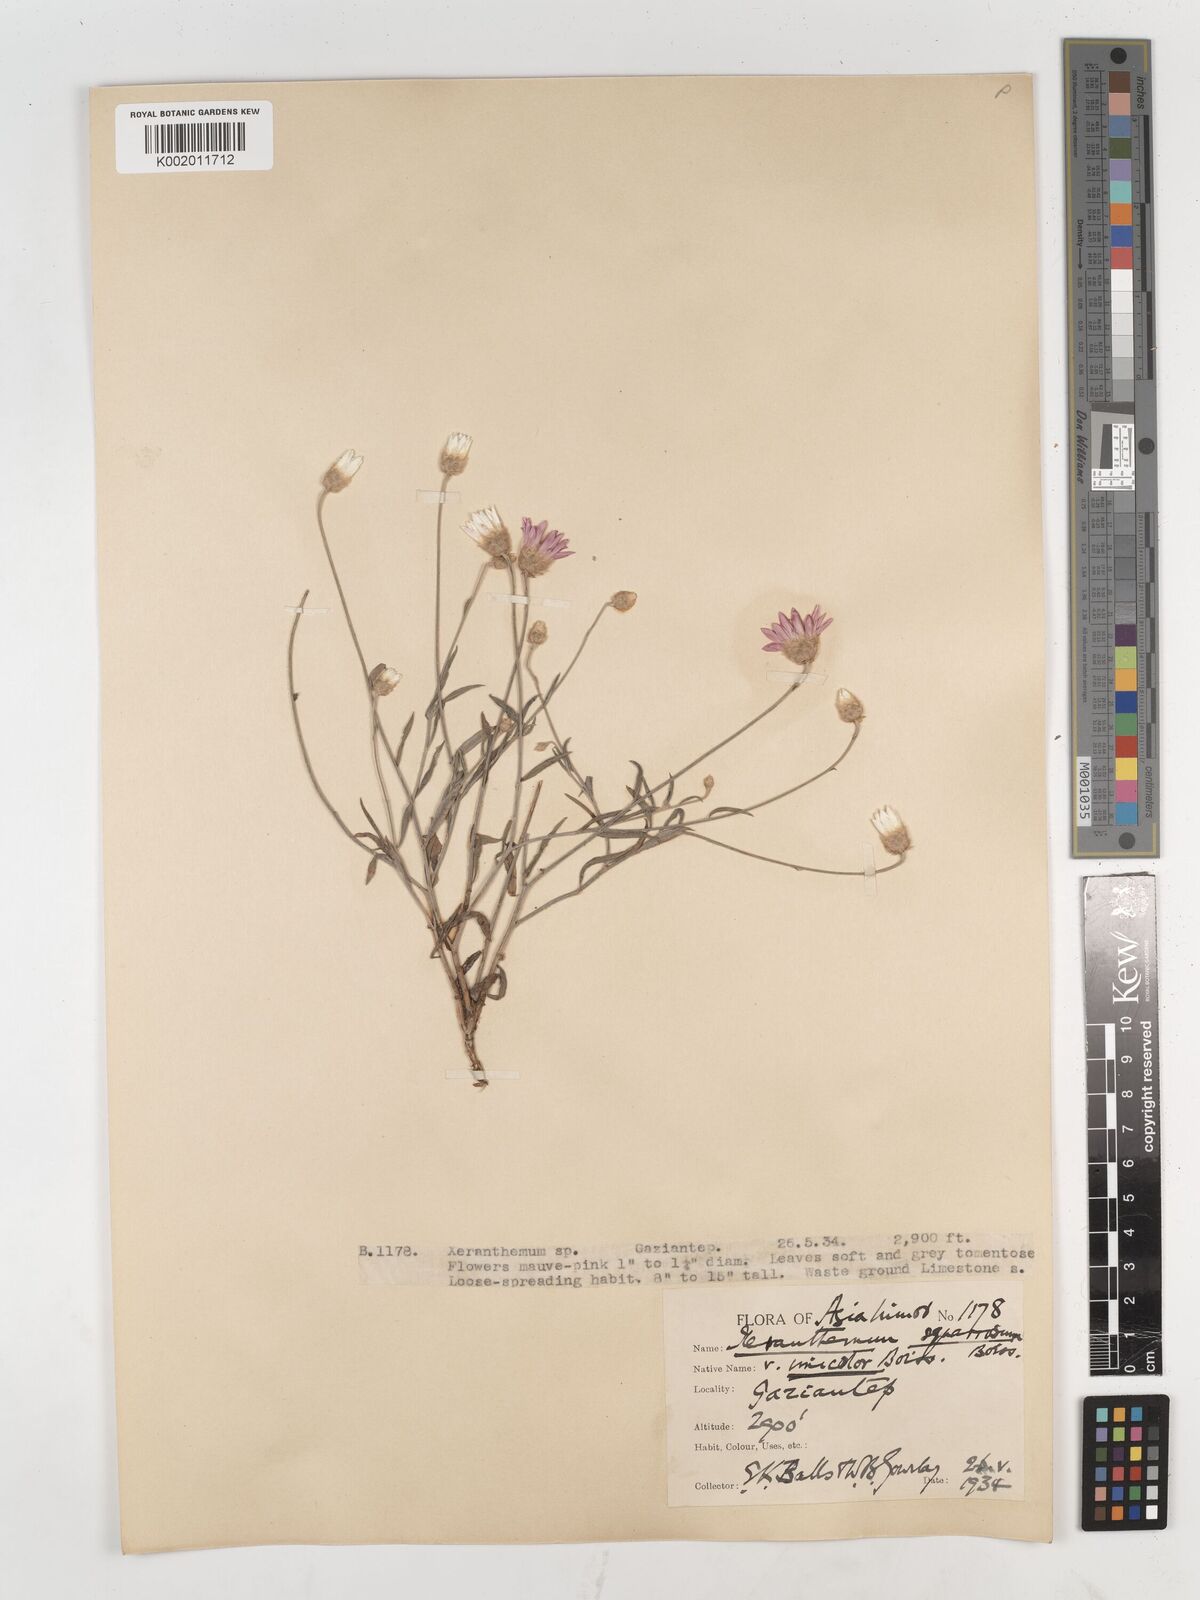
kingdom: Plantae
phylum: Tracheophyta
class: Magnoliopsida
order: Asterales
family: Asteraceae
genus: Xeranthemum
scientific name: Xeranthemum squarrosum
